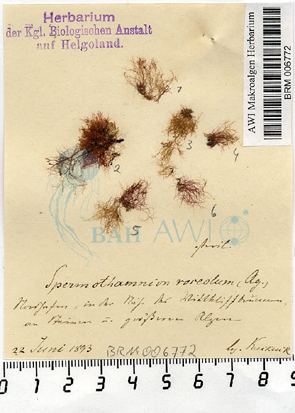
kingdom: Plantae
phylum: Rhodophyta
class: Florideophyceae
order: Ceramiales
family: Wrangeliaceae
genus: Spermothamnion
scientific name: Spermothamnion repens
